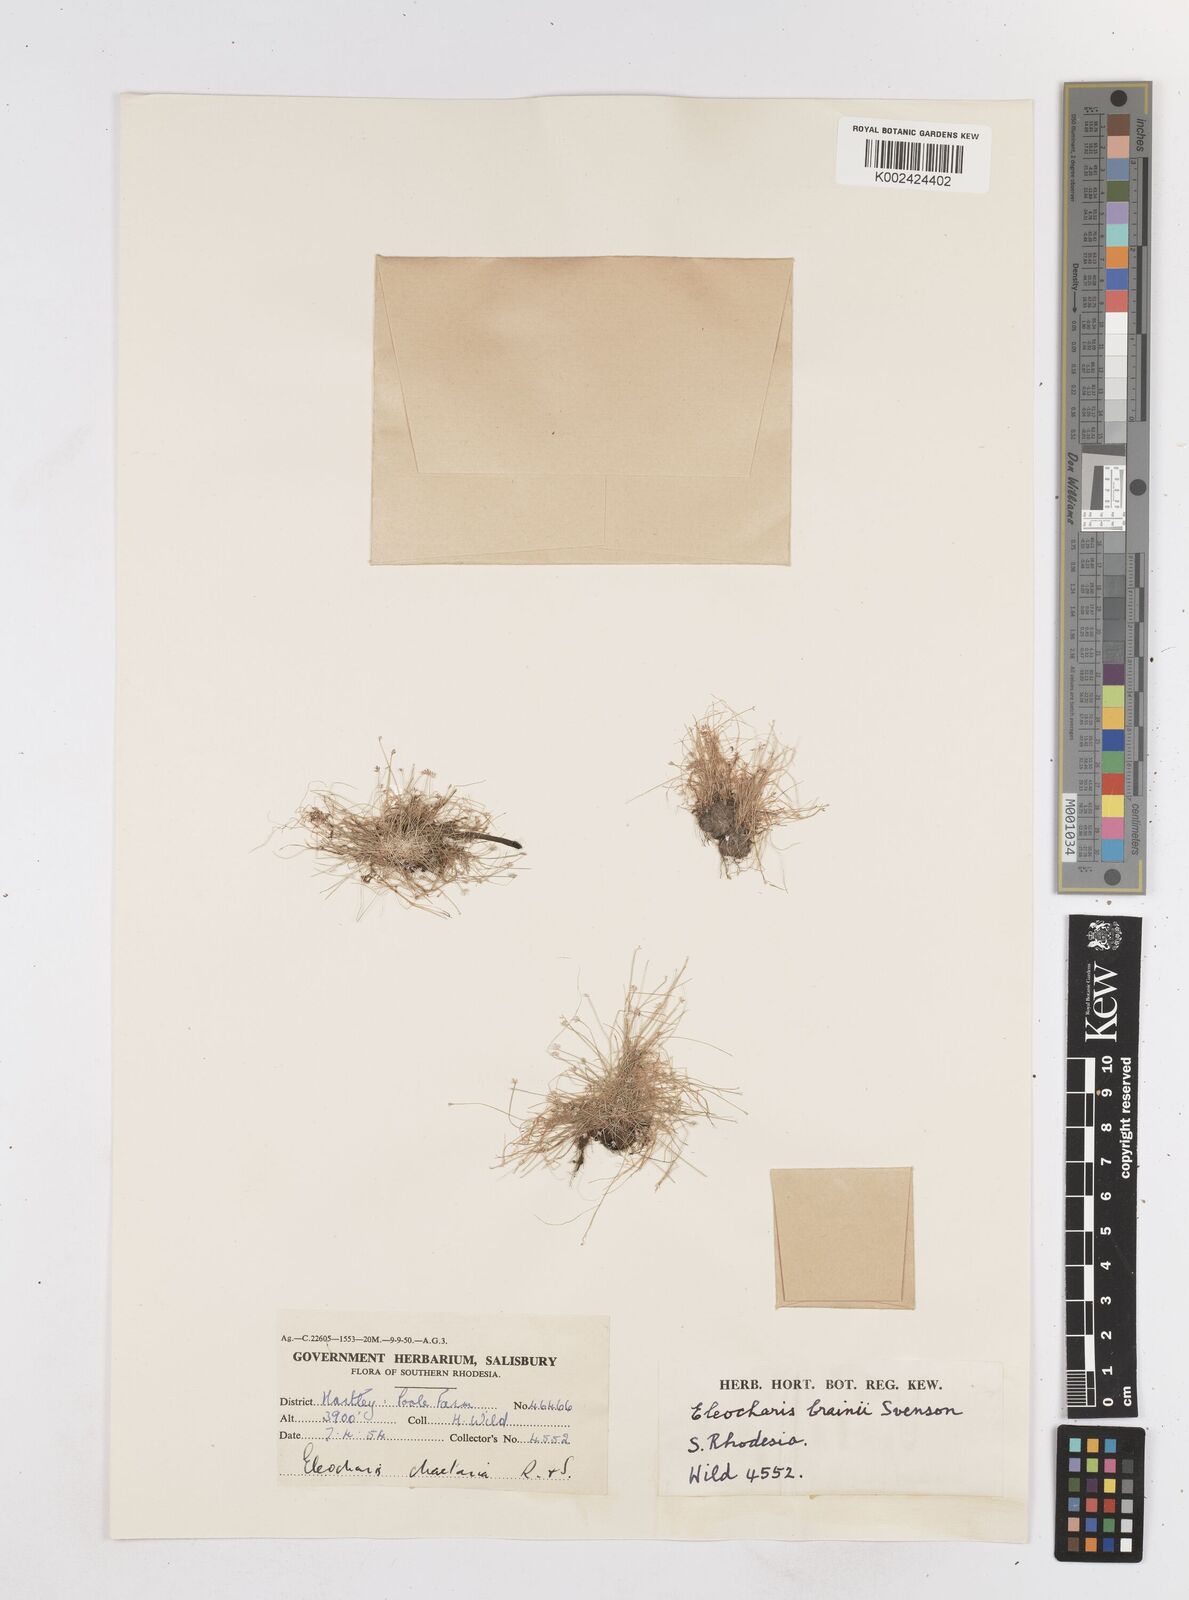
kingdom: Plantae
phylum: Tracheophyta
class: Liliopsida
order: Poales
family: Cyperaceae
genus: Eleocharis
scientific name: Eleocharis brainii
